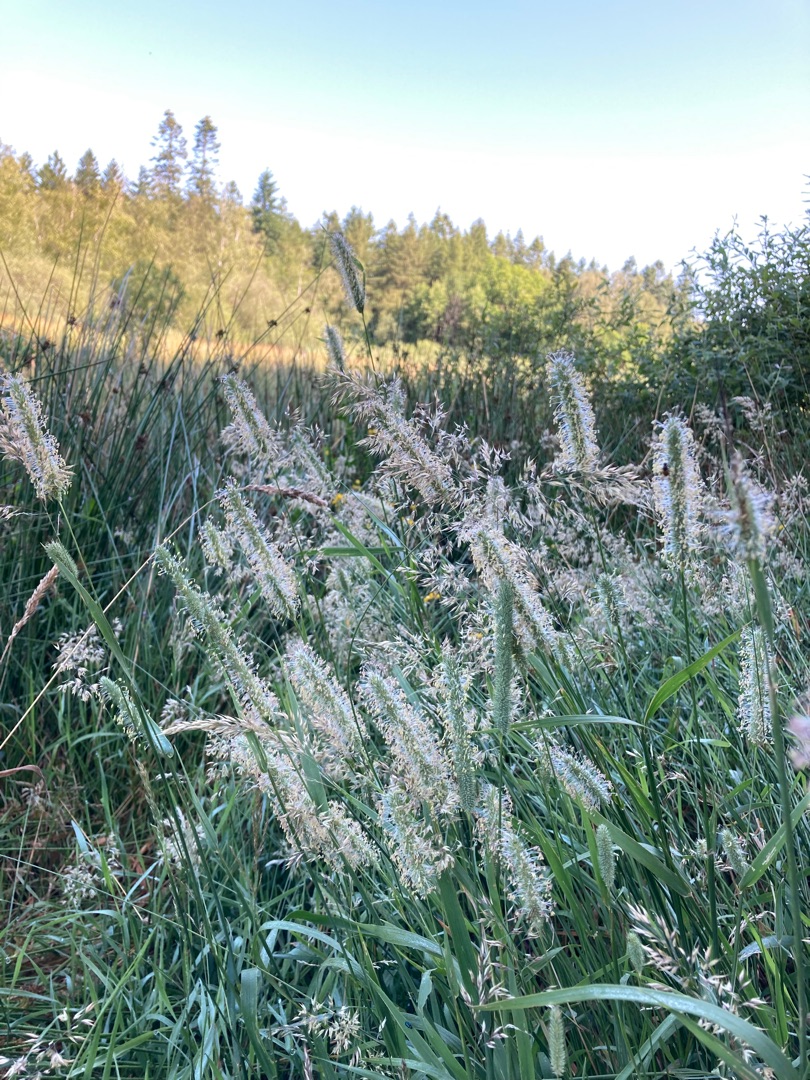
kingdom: Plantae
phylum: Tracheophyta
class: Liliopsida
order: Poales
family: Poaceae
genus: Phleum
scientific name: Phleum pratense
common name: Eng-rottehale
